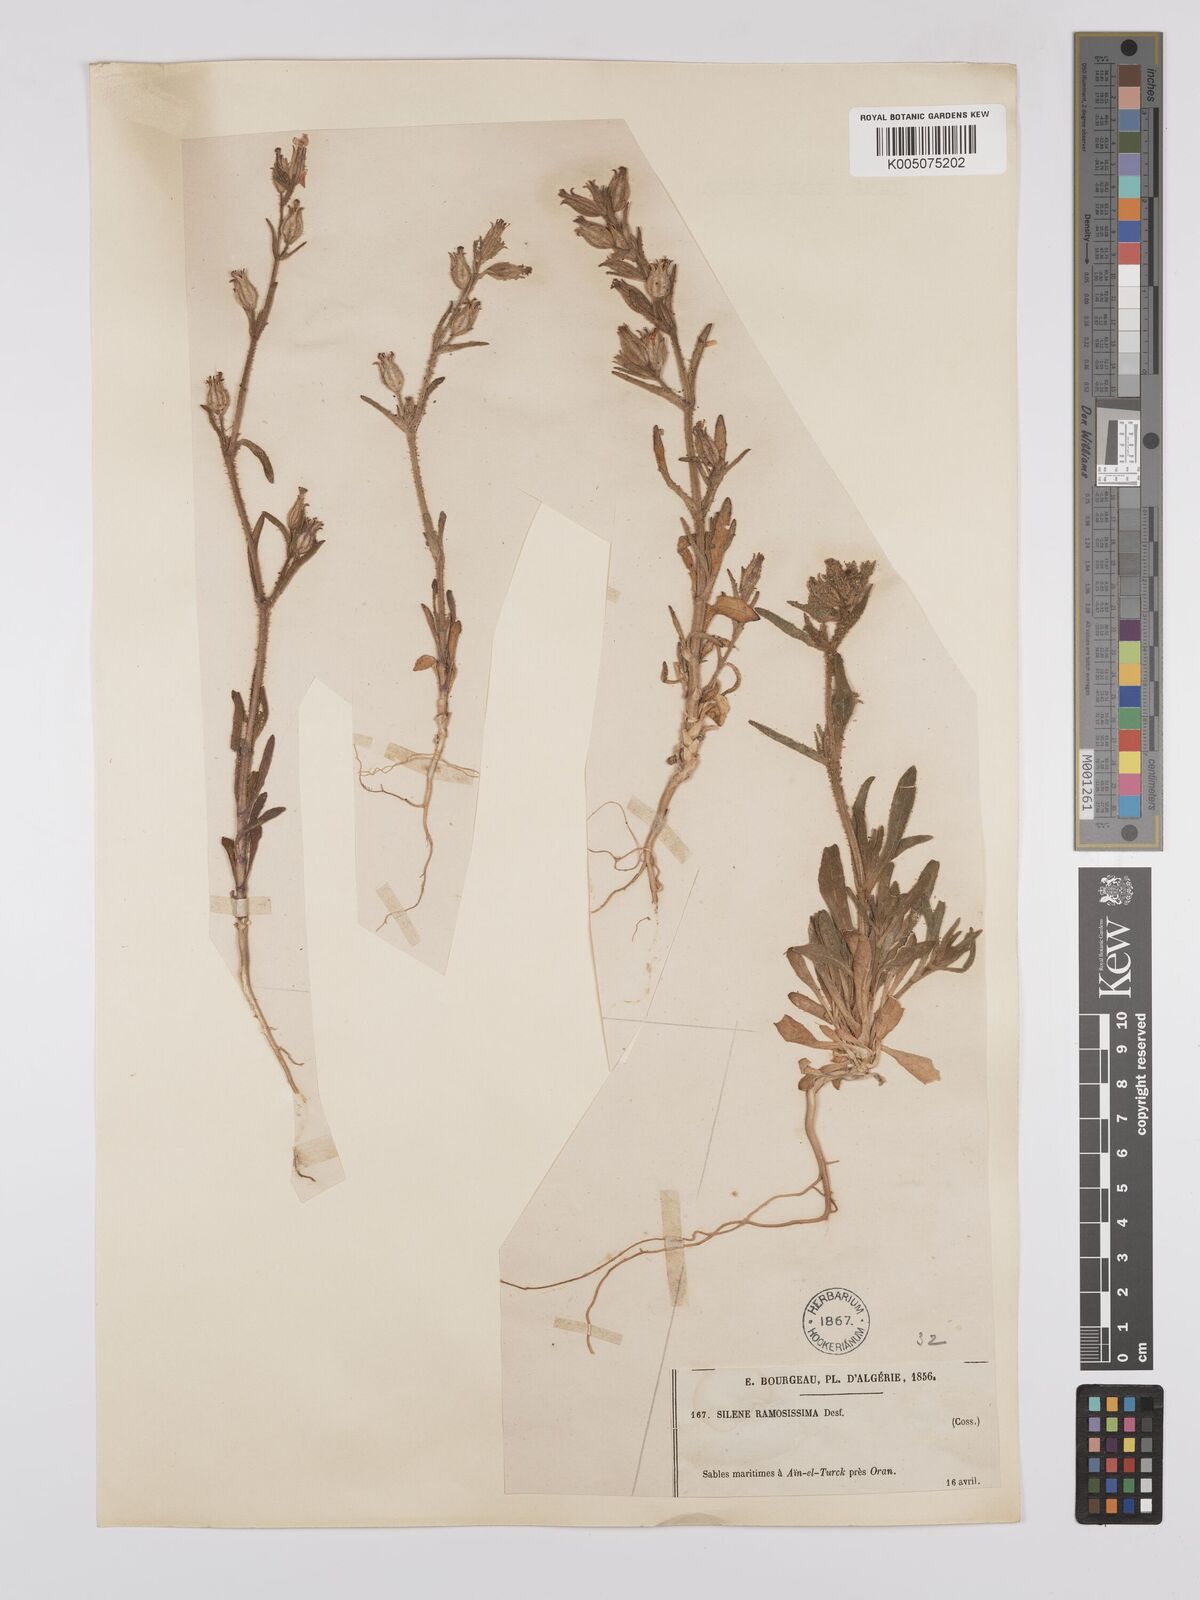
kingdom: Plantae
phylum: Tracheophyta
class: Magnoliopsida
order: Caryophyllales
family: Caryophyllaceae
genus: Silene
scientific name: Silene ramosissima
